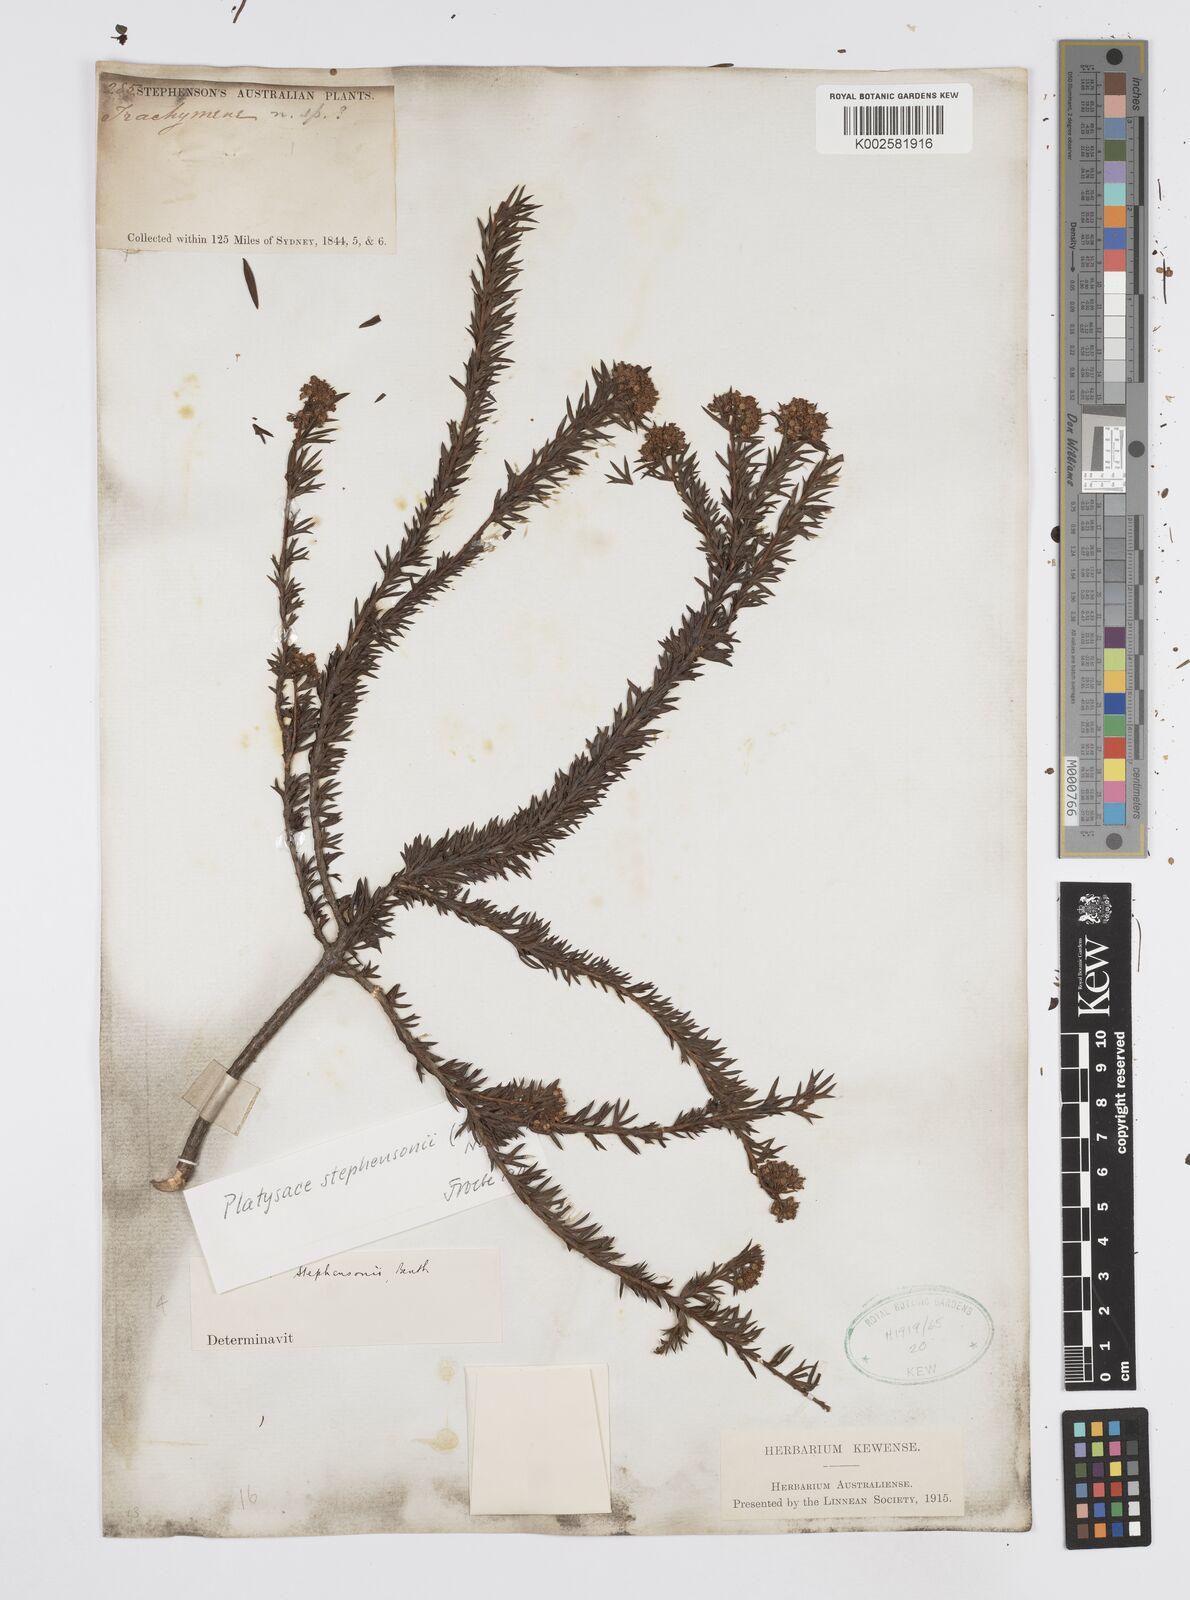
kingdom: Plantae
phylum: Tracheophyta
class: Magnoliopsida
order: Apiales
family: Apiaceae
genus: Platysace
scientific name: Platysace stephensonii
